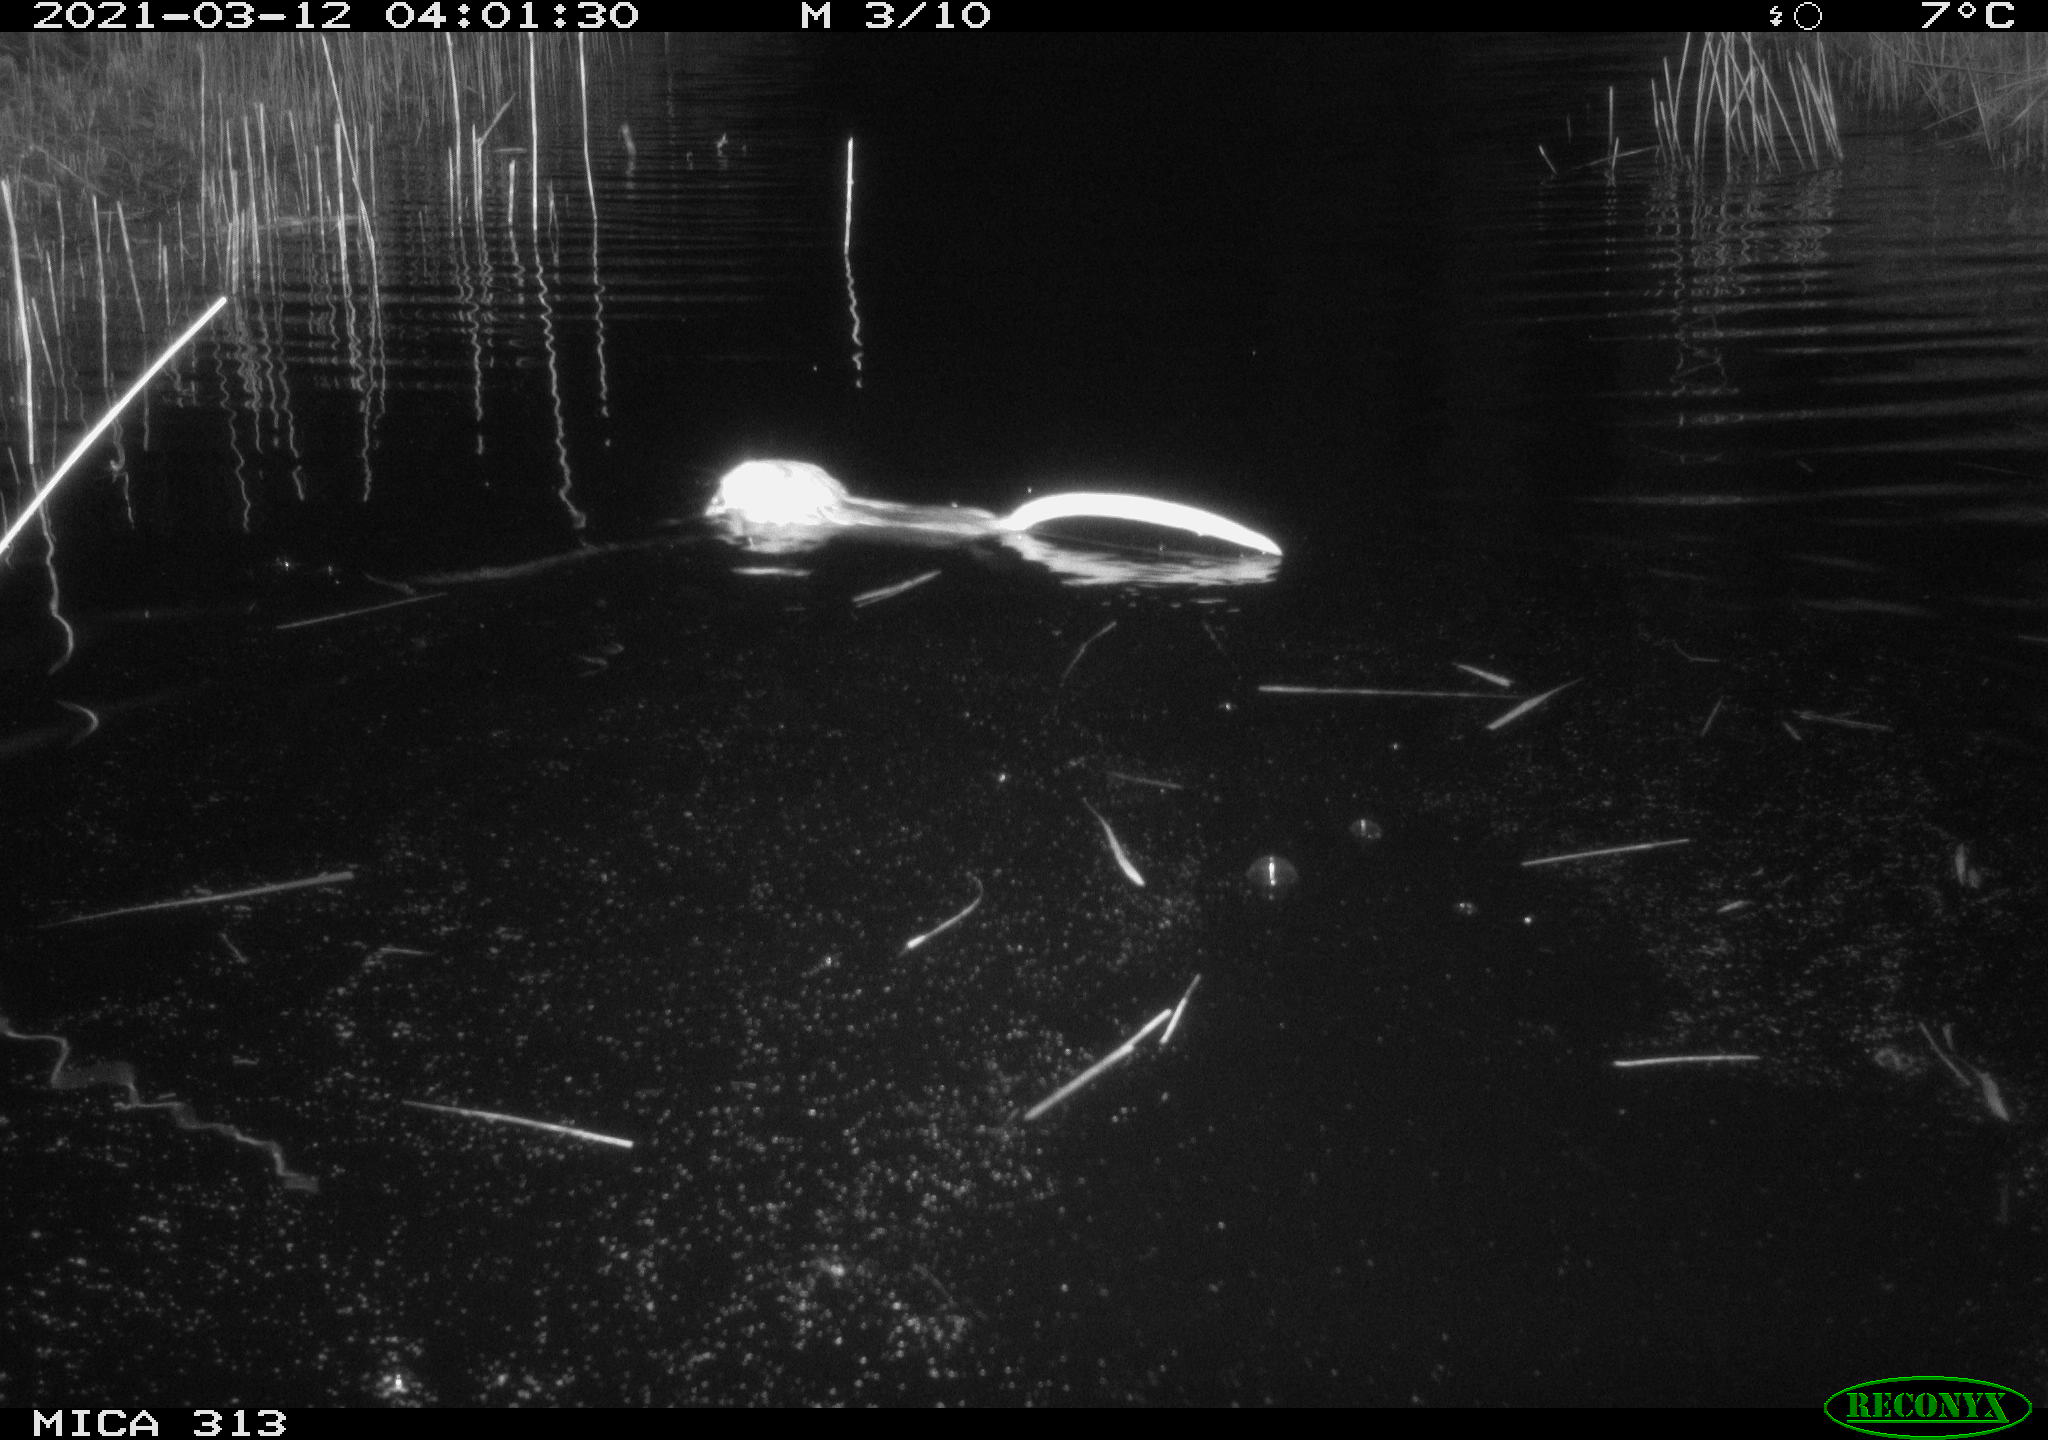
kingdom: Animalia
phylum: Chordata
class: Mammalia
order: Rodentia
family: Cricetidae
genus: Ondatra
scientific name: Ondatra zibethicus
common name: Muskrat
